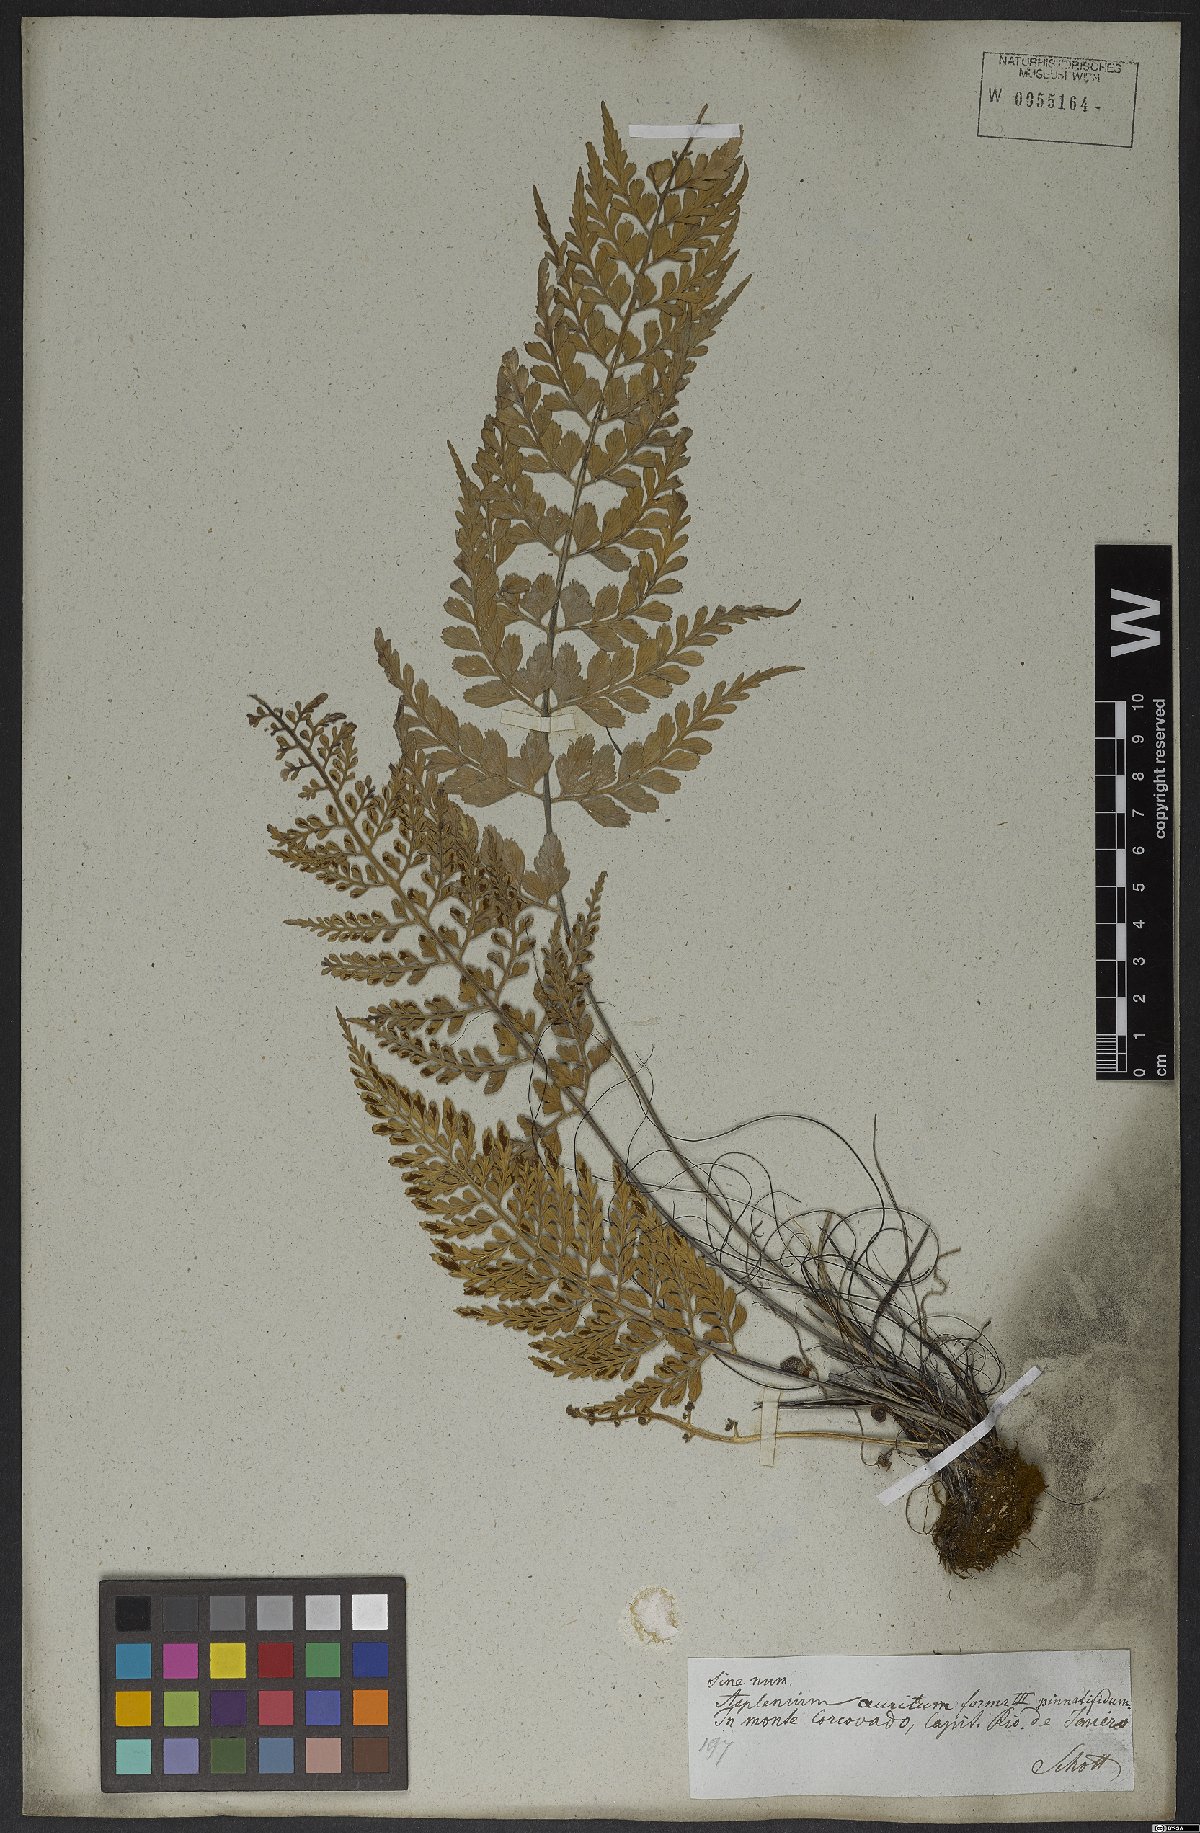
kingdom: Plantae
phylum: Tracheophyta
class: Polypodiopsida
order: Polypodiales
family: Aspleniaceae
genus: Asplenium
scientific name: Asplenium sulcatum
